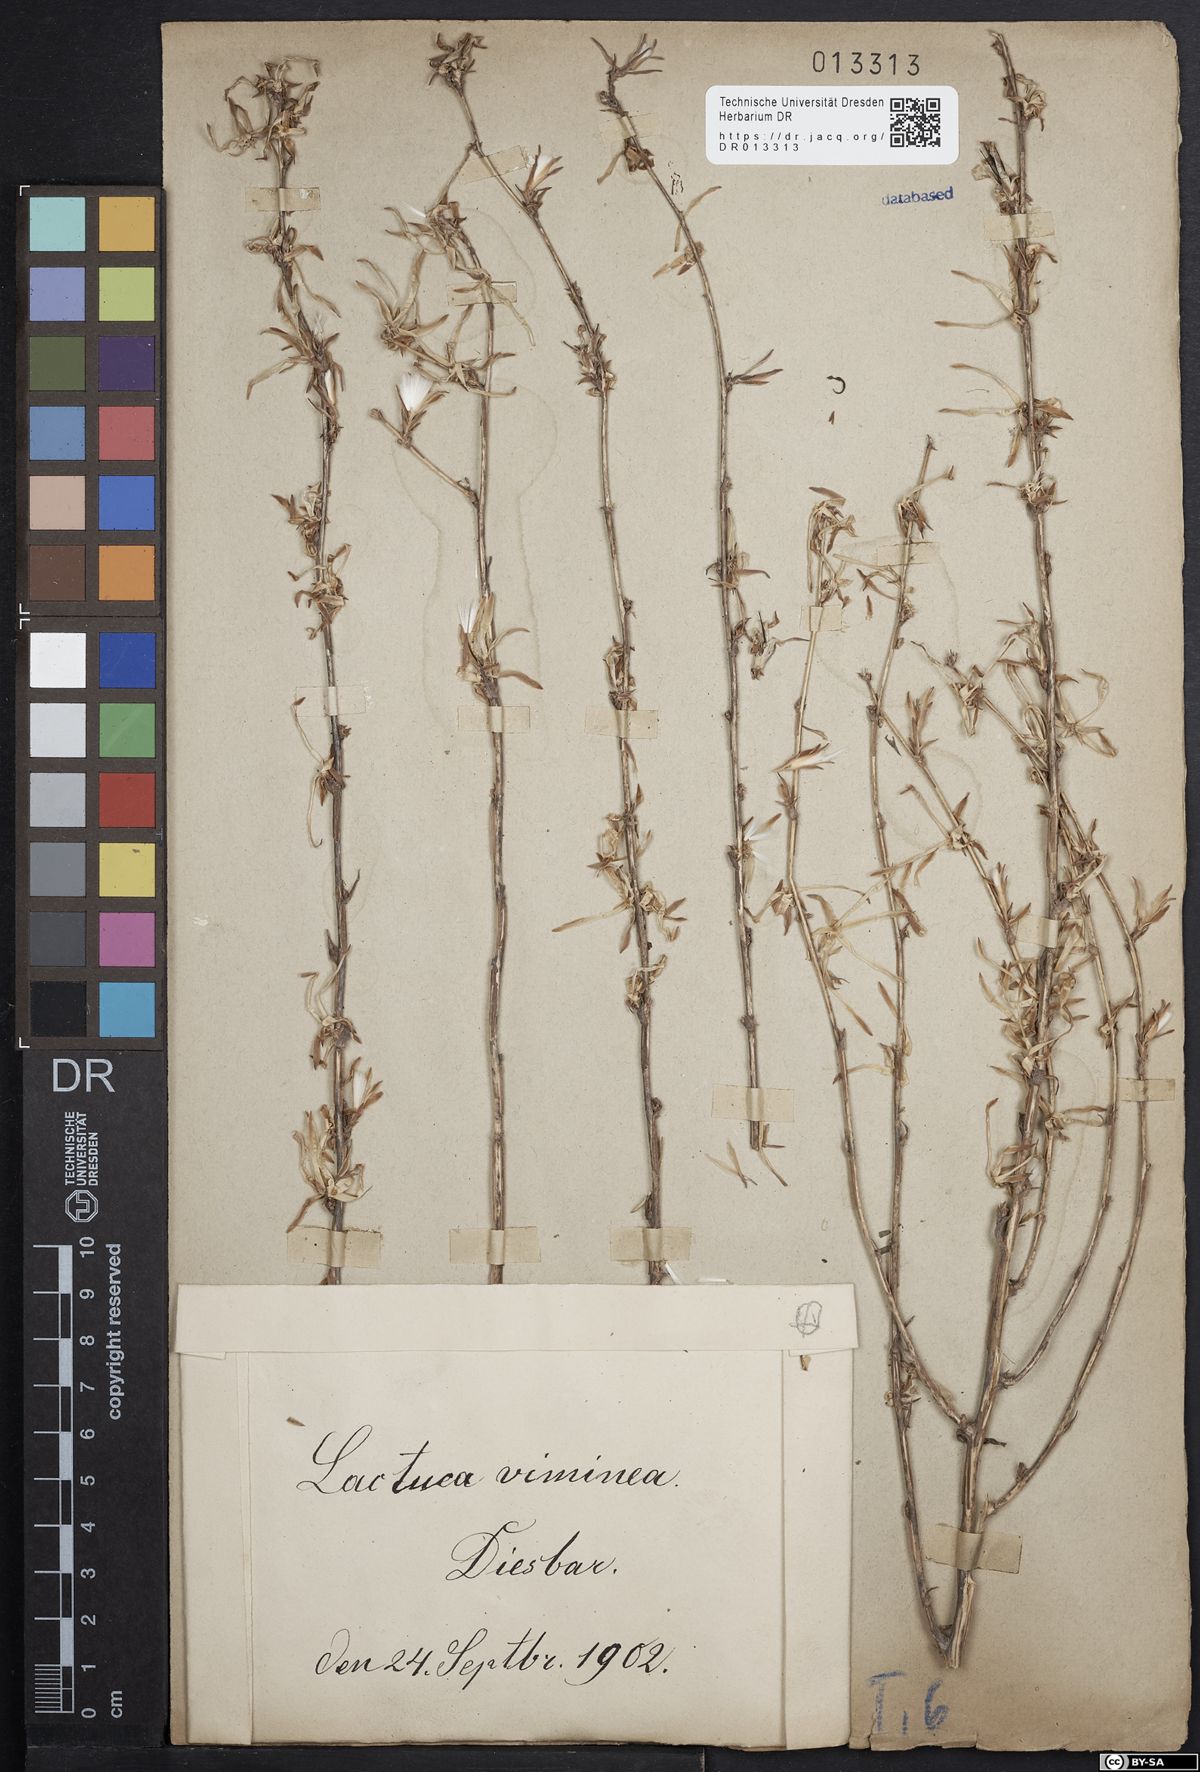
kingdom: Plantae
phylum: Tracheophyta
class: Magnoliopsida
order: Asterales
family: Asteraceae
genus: Lactuca
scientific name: Lactuca viminea
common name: Pliant lettuce
